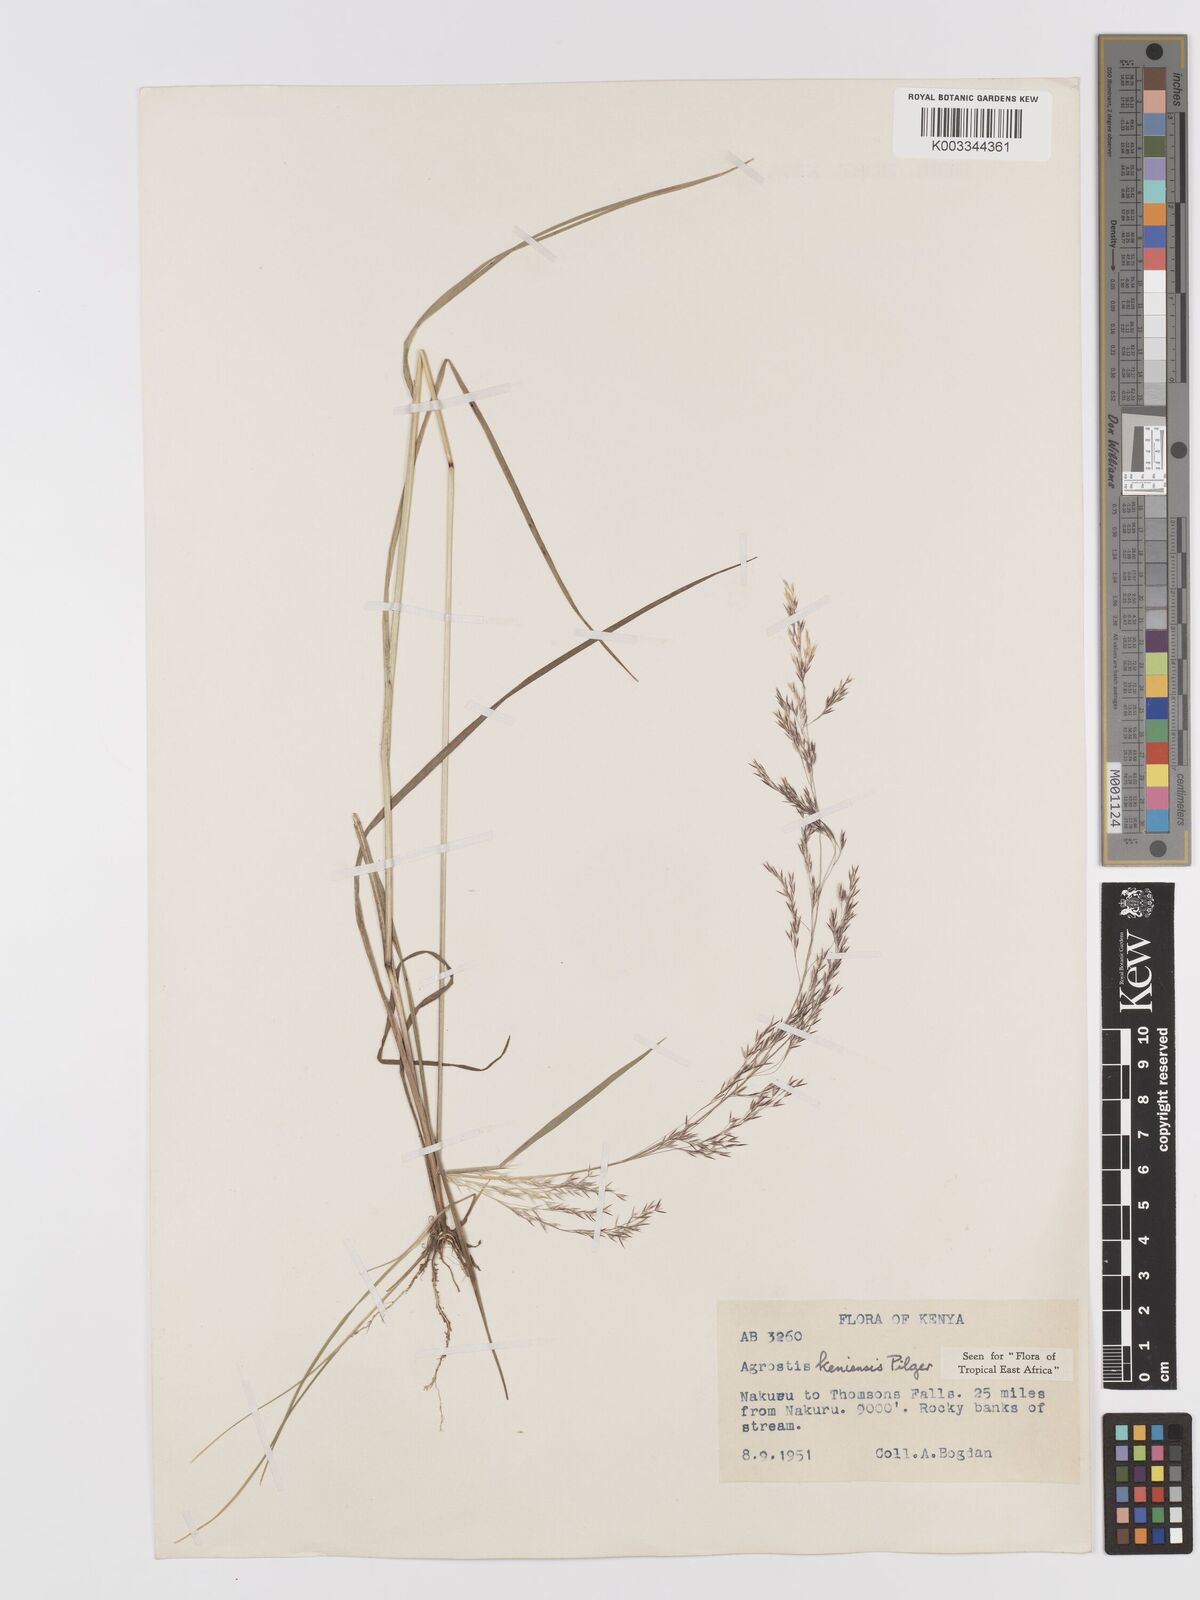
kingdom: Plantae
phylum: Tracheophyta
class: Liliopsida
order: Poales
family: Poaceae
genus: Agrostis
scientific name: Agrostis keniensis
